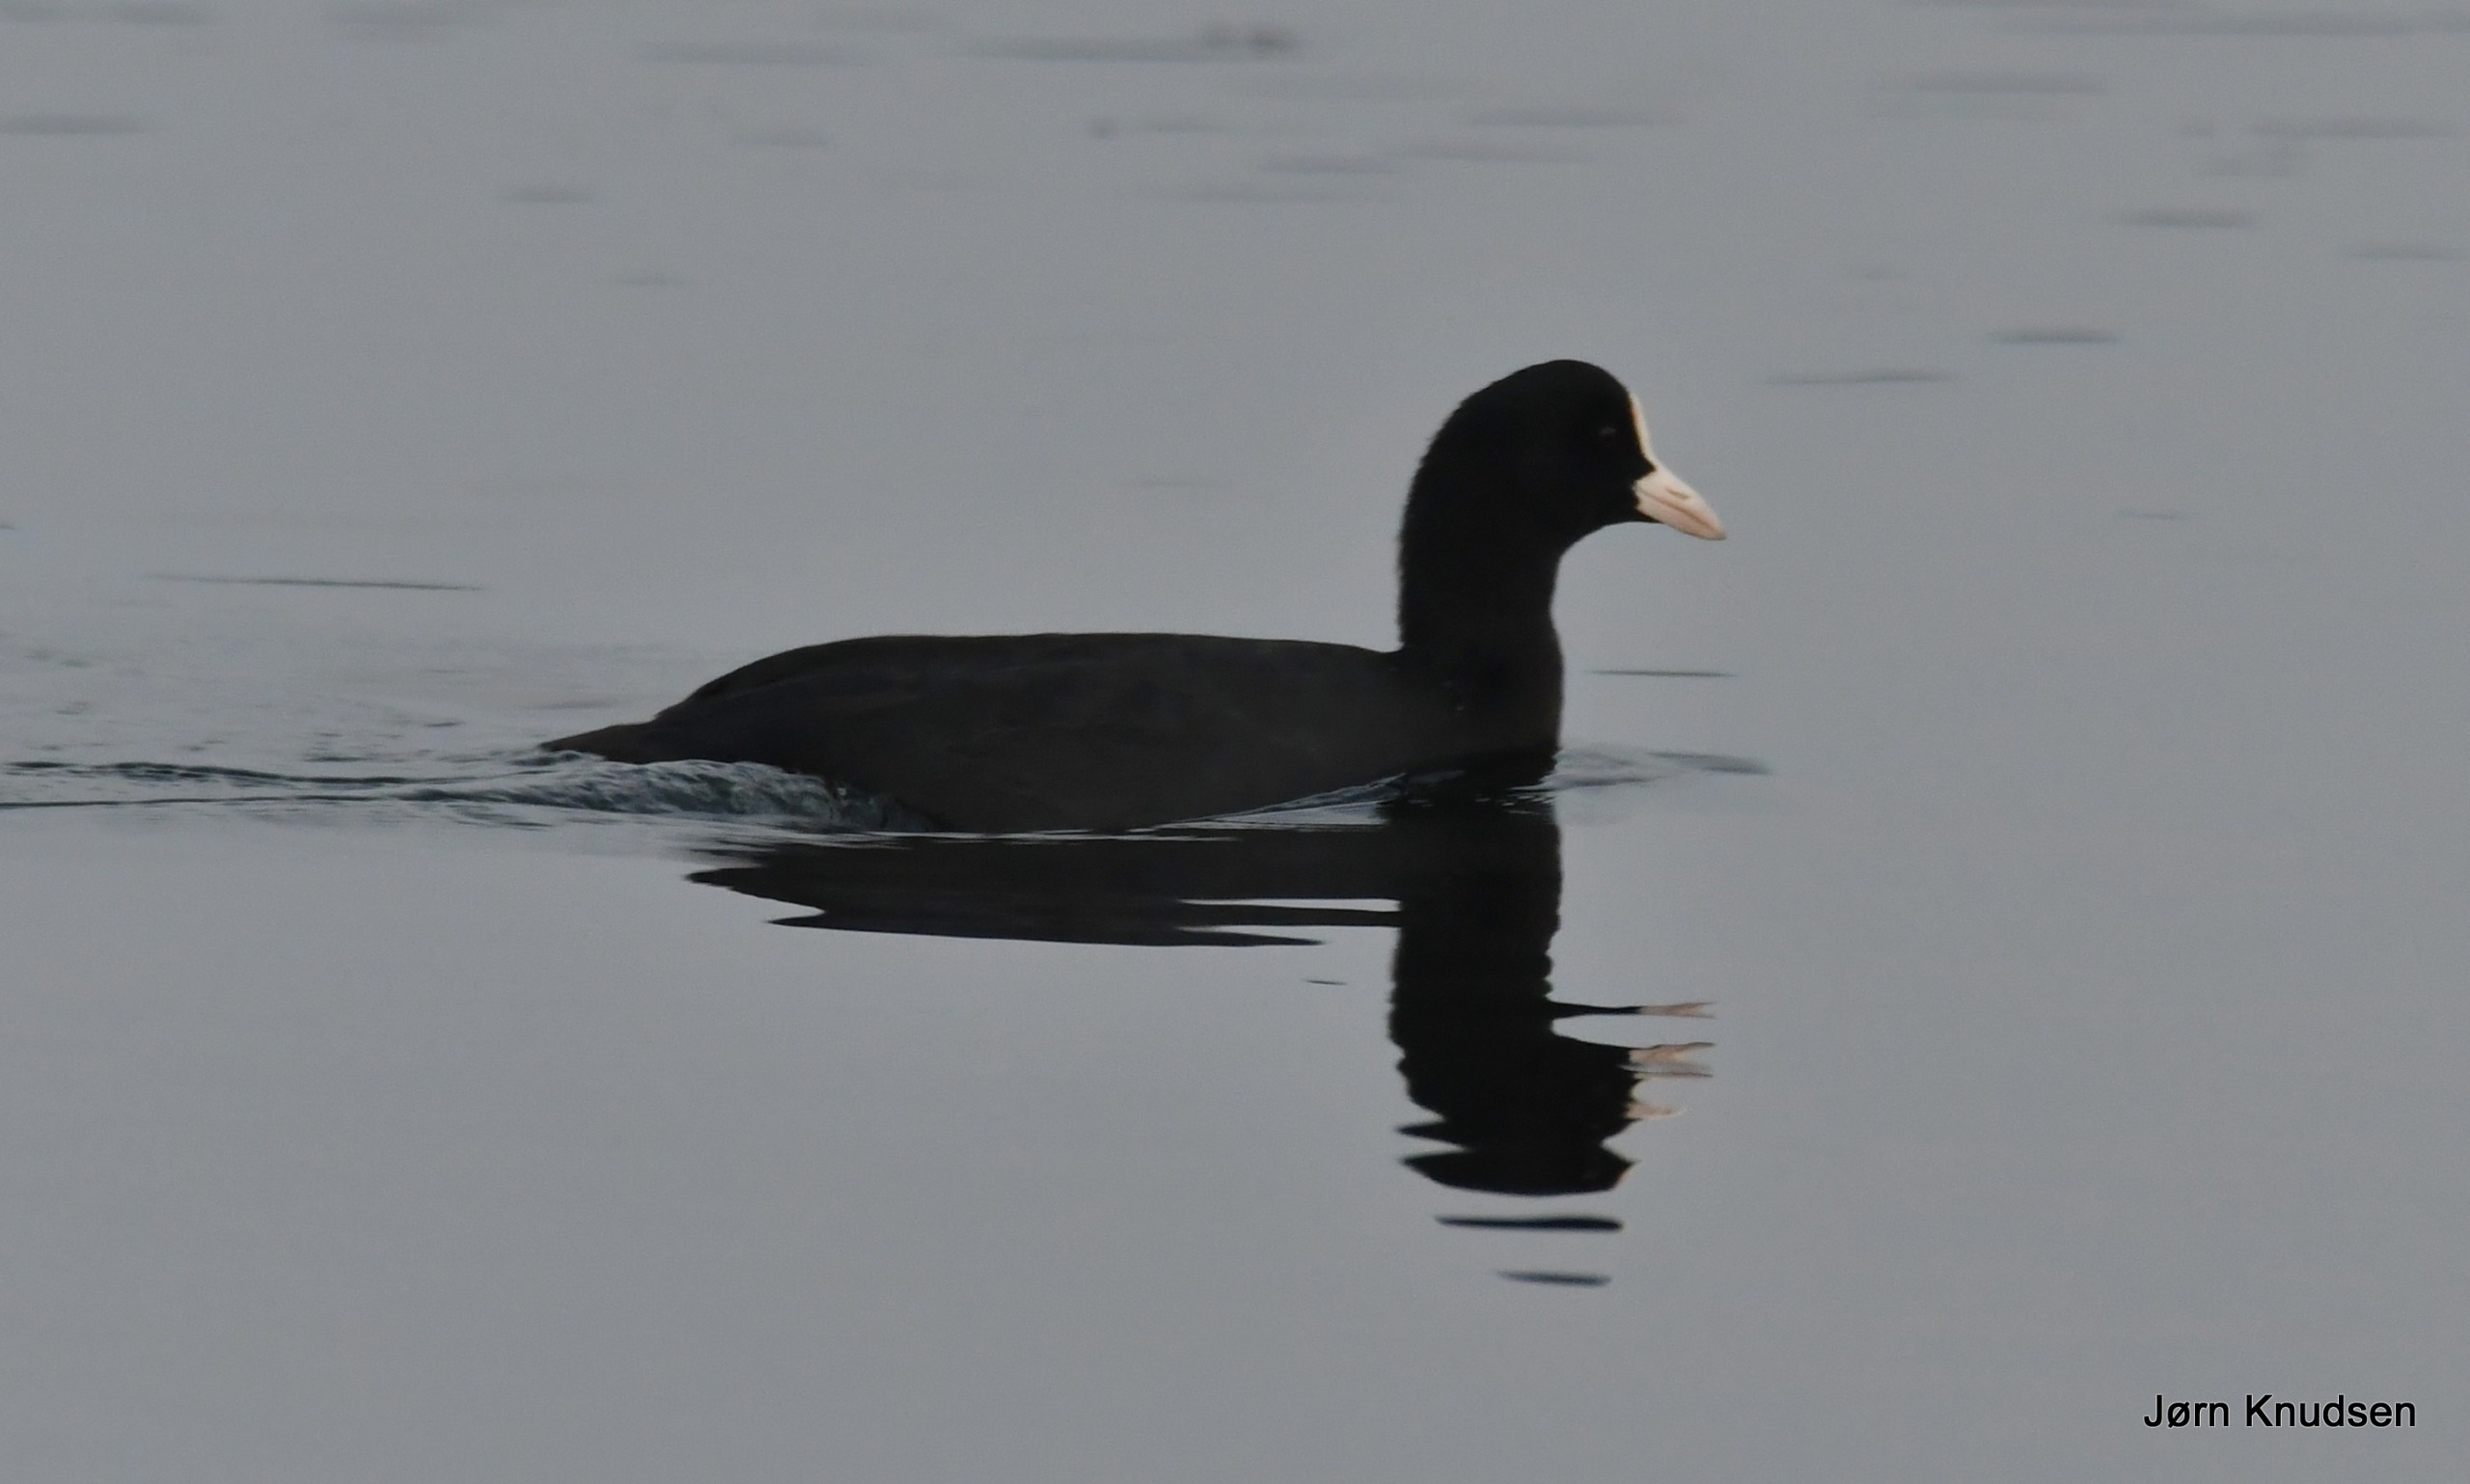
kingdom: Animalia
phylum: Chordata
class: Aves
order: Gruiformes
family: Rallidae
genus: Fulica
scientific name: Fulica atra
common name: Blishøne
